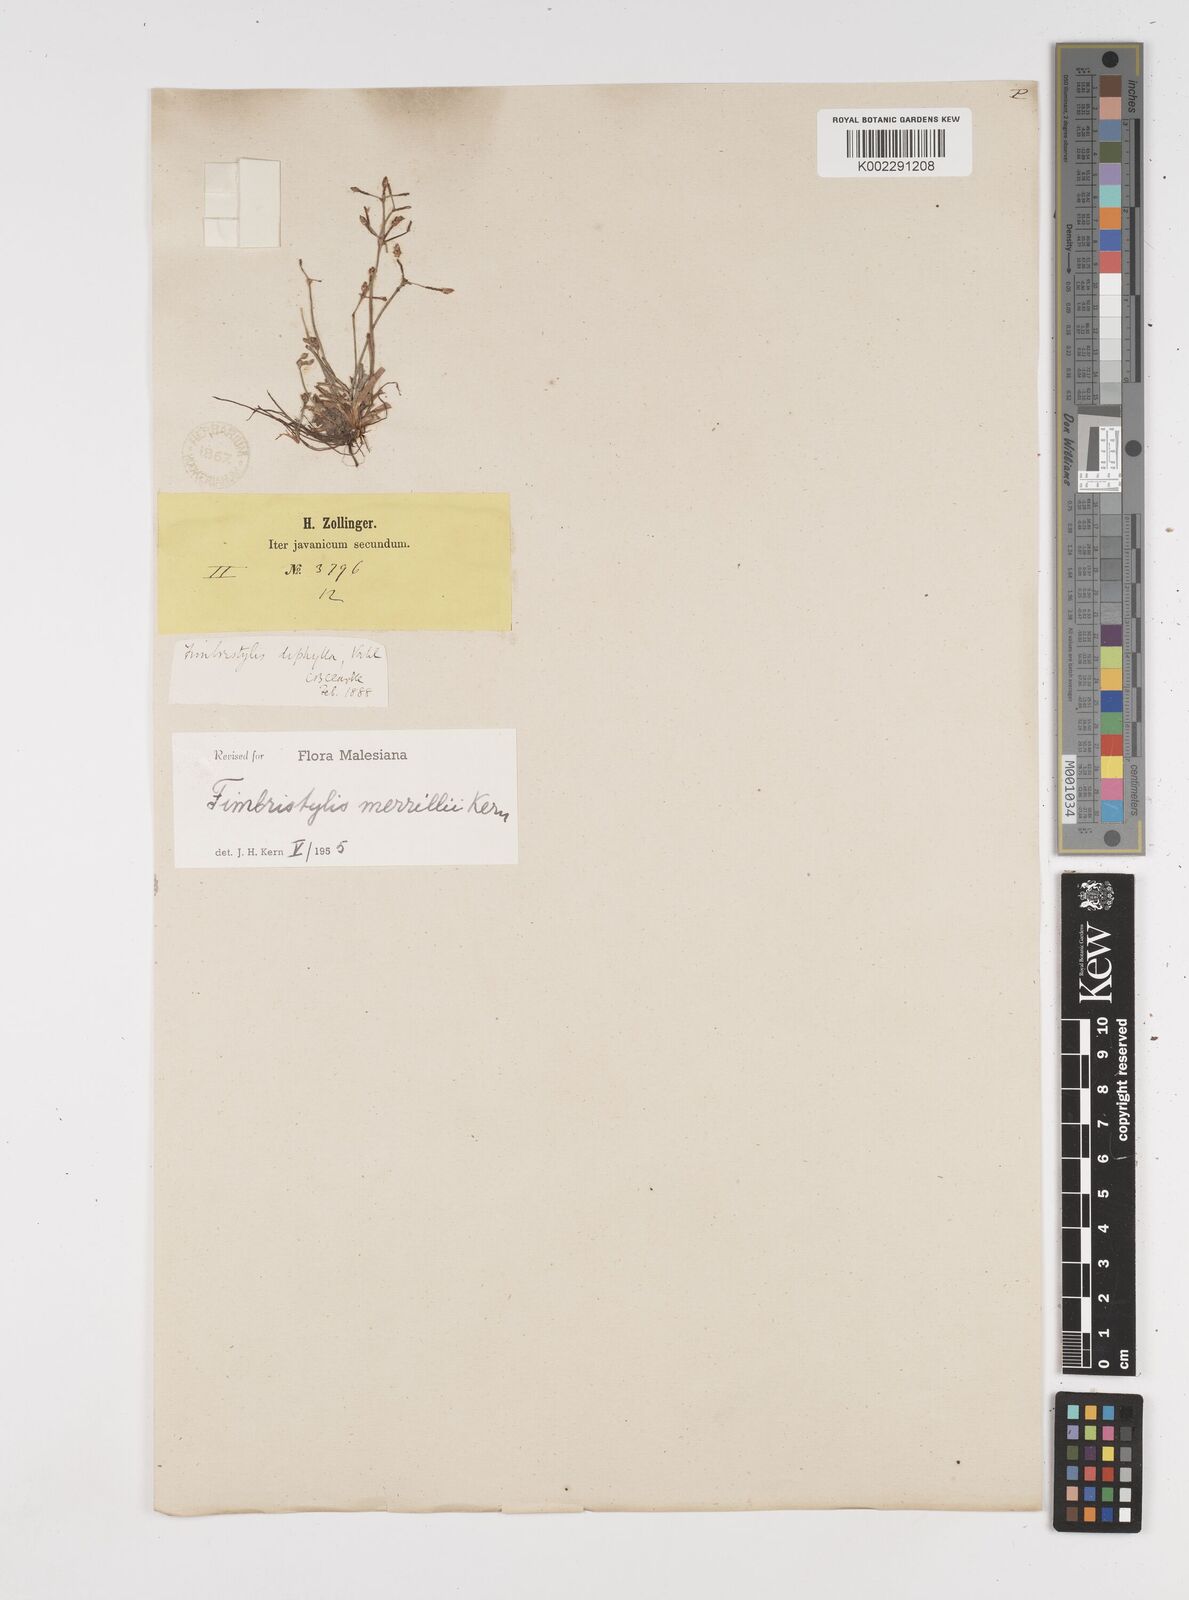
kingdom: Plantae
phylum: Tracheophyta
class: Liliopsida
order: Poales
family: Cyperaceae
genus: Fimbristylis
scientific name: Fimbristylis merrillii
